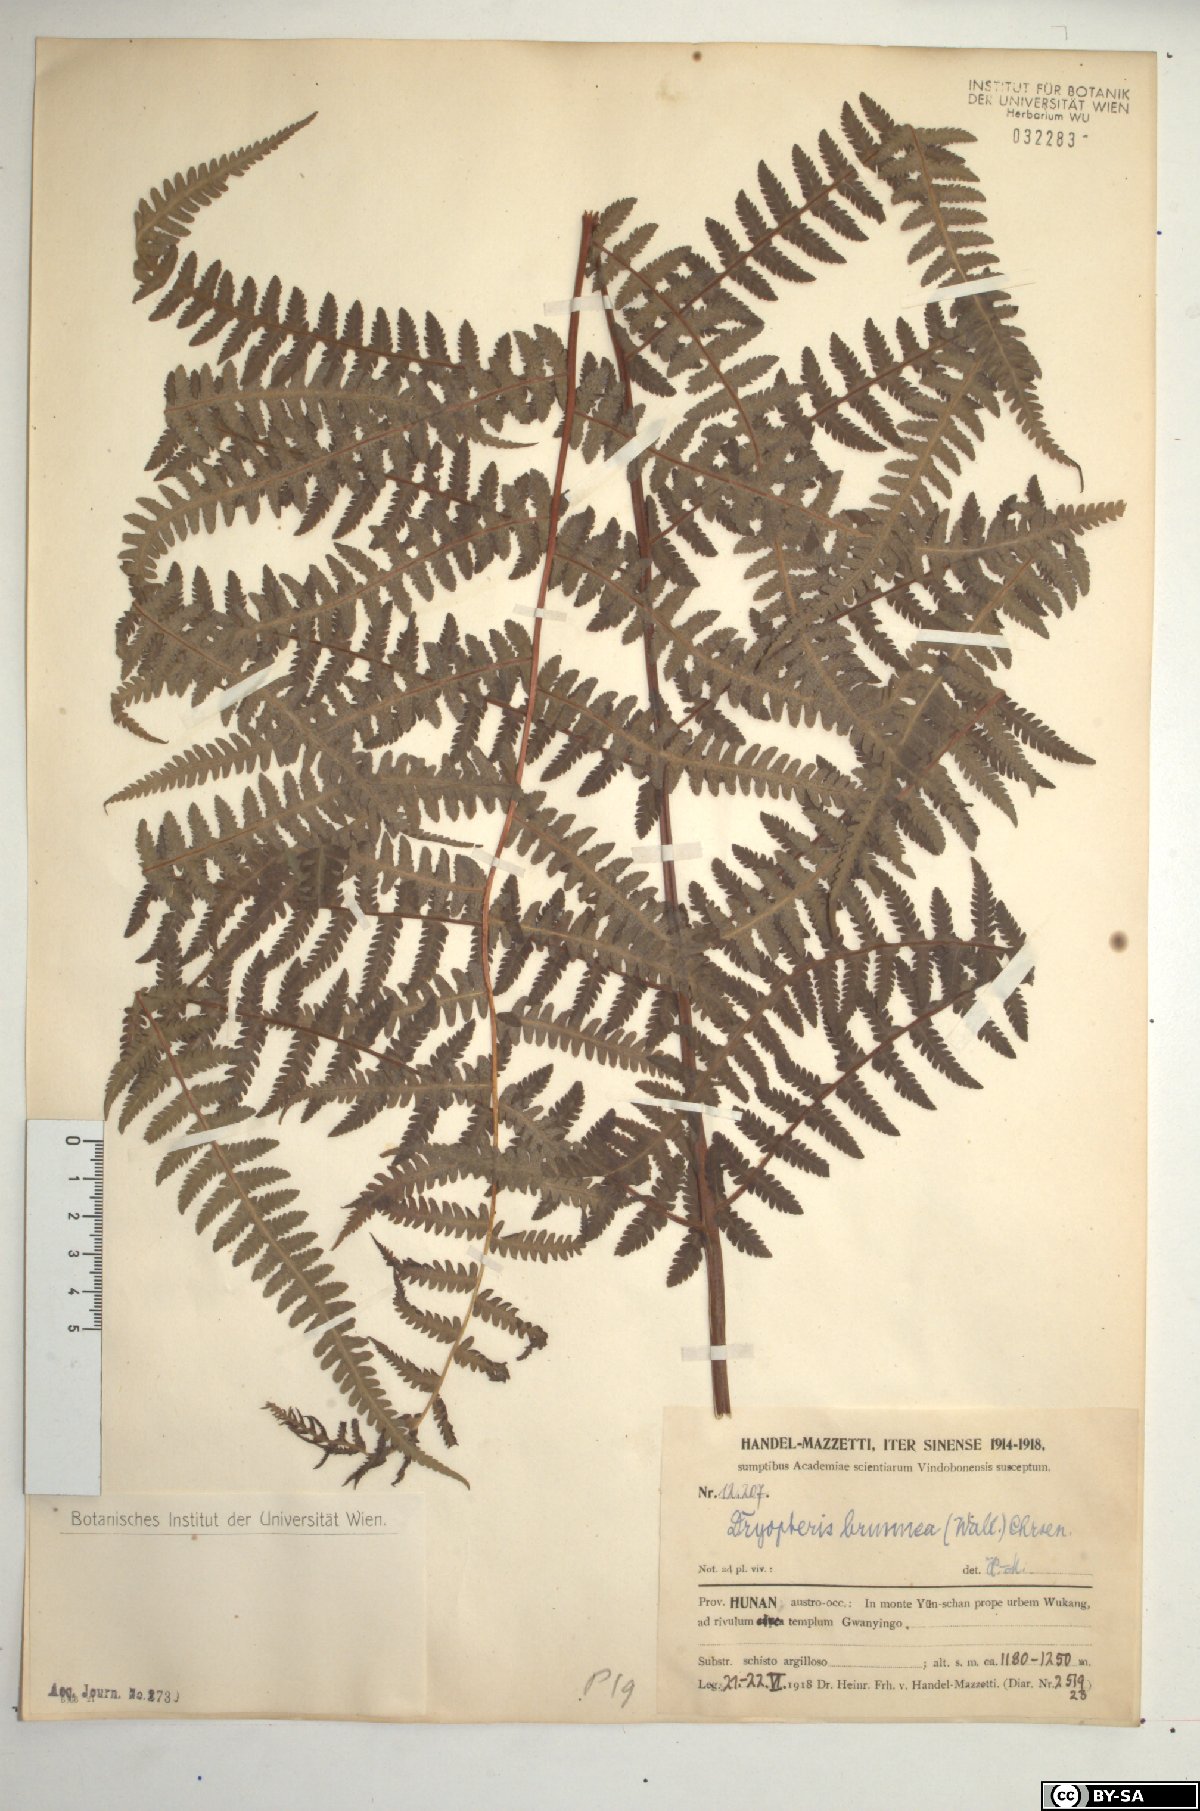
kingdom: Plantae
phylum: Tracheophyta
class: Polypodiopsida
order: Polypodiales
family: Thelypteridaceae
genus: Pseudophegopteris
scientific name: Pseudophegopteris pyrrhorachis
